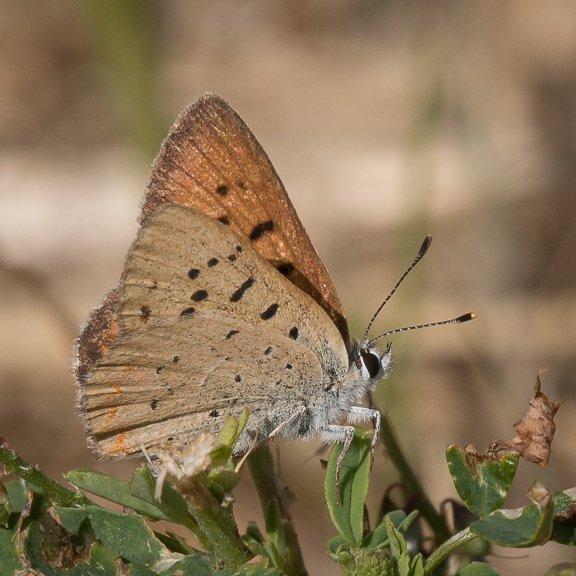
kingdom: Animalia
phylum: Arthropoda
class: Insecta
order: Lepidoptera
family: Sesiidae
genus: Sesia
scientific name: Sesia Lycaena helloides
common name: Purplish Copper
